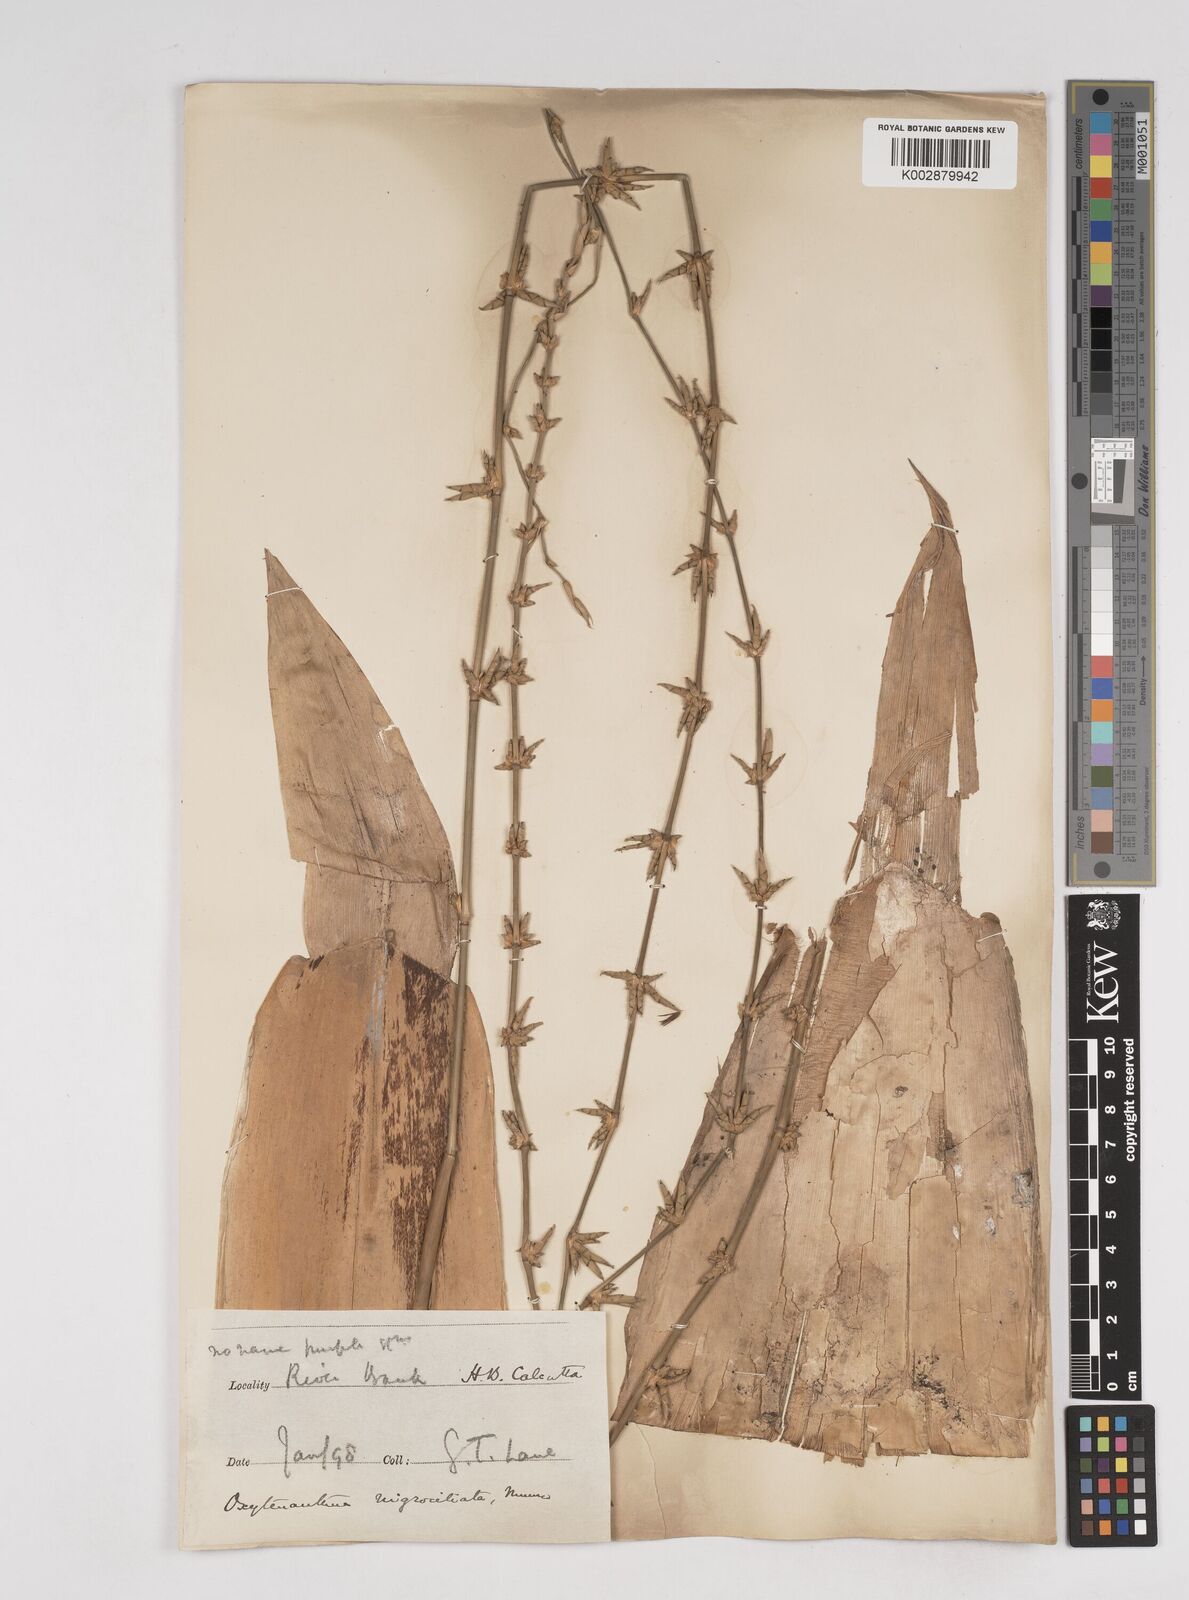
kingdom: Plantae
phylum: Tracheophyta
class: Liliopsida
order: Poales
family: Poaceae
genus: Gigantochloa
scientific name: Gigantochloa nigrociliata
